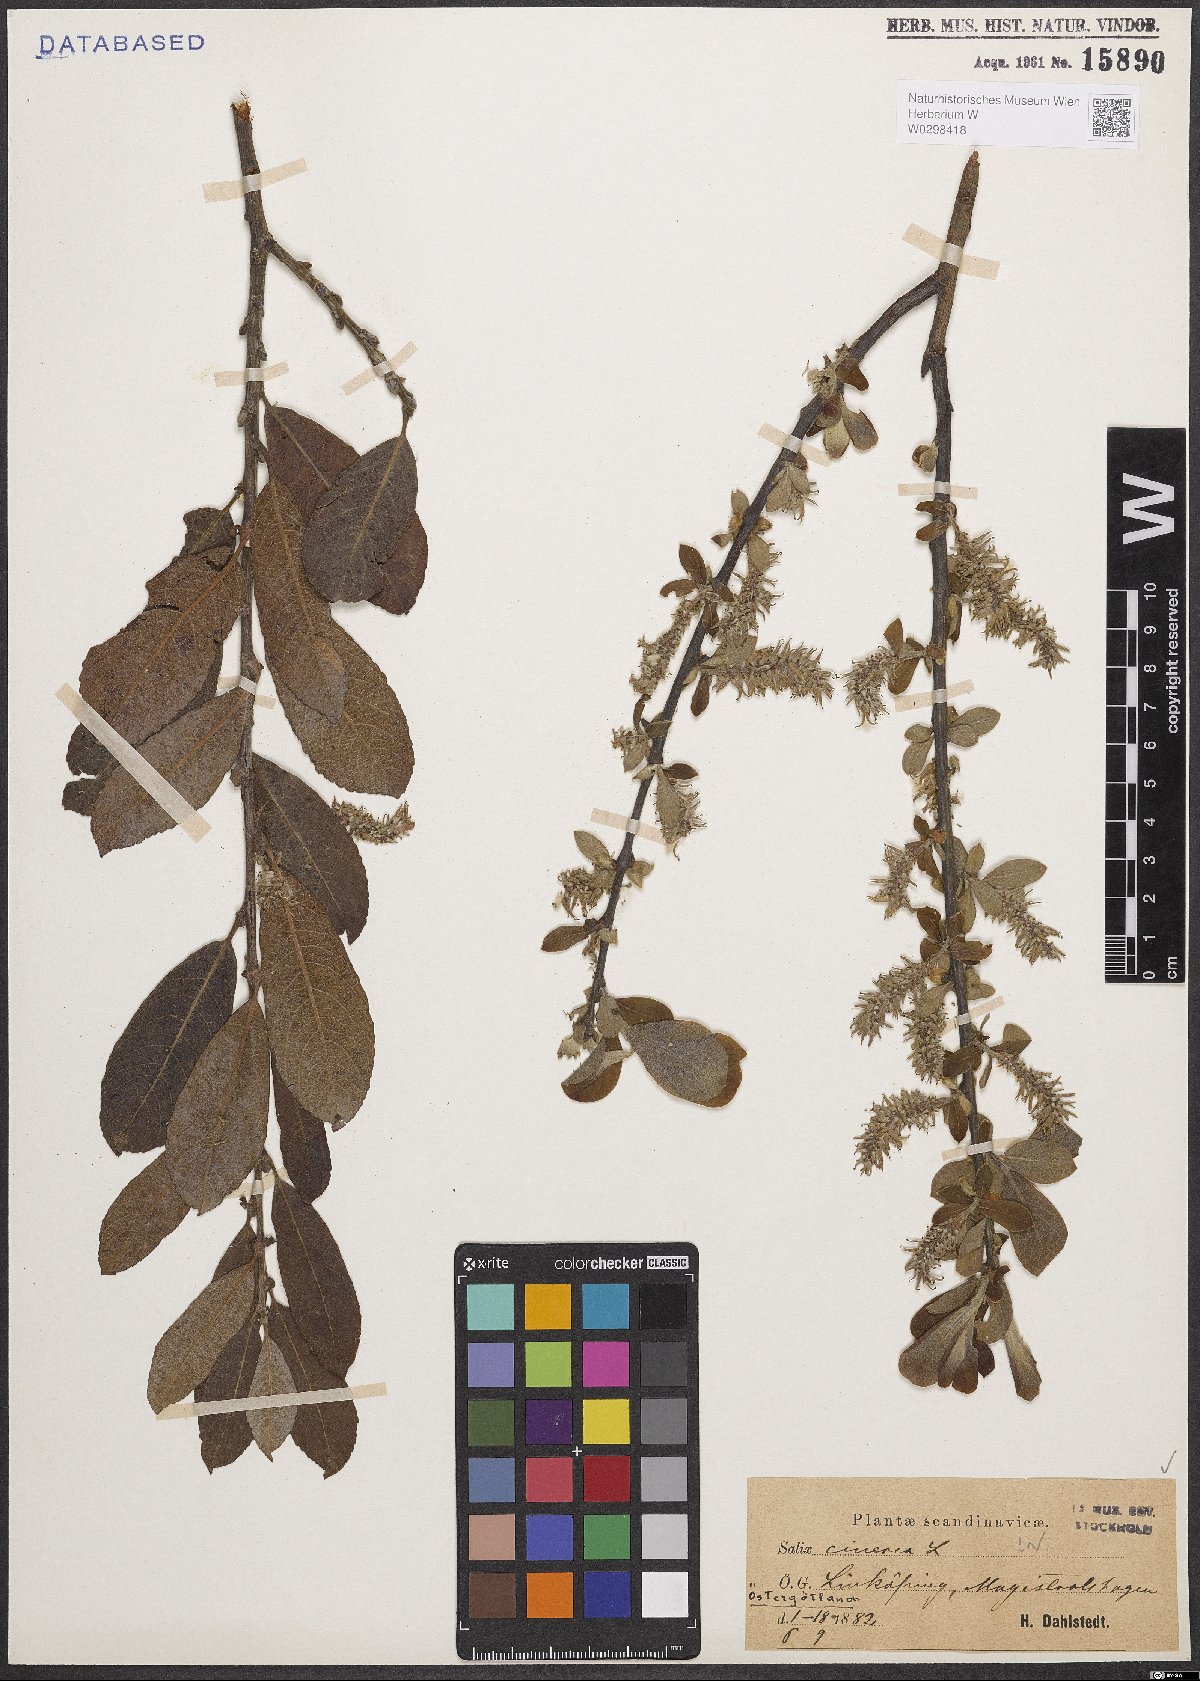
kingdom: Plantae
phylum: Tracheophyta
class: Magnoliopsida
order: Malpighiales
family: Salicaceae
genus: Salix
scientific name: Salix cinerea
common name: Common sallow
